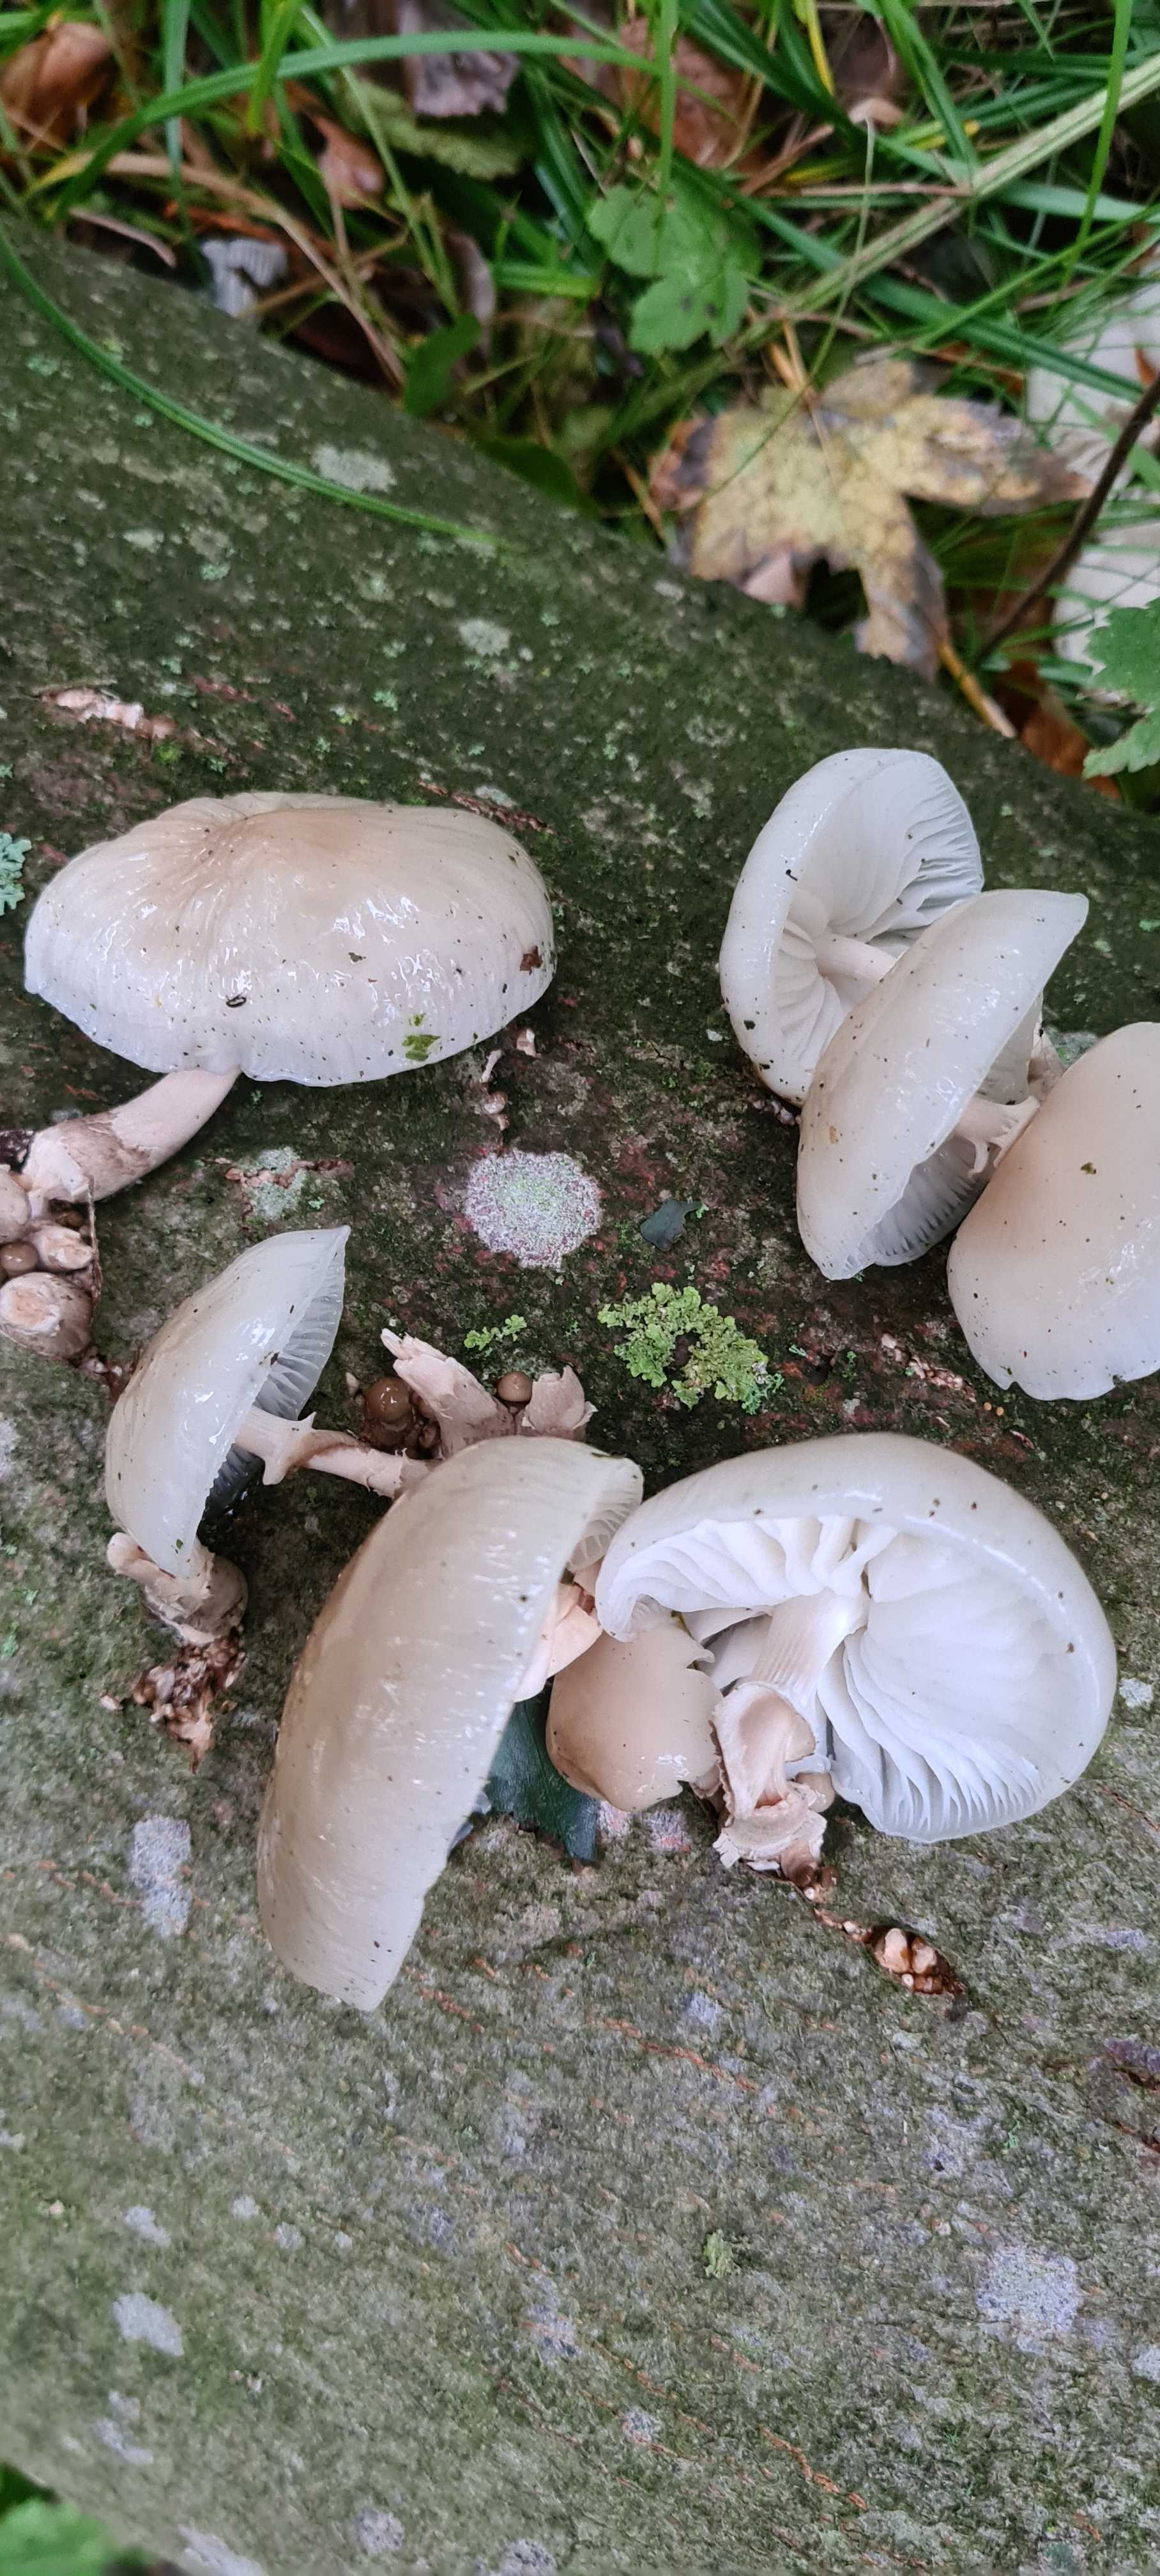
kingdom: Fungi
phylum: Basidiomycota
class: Agaricomycetes
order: Agaricales
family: Physalacriaceae
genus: Mucidula
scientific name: Mucidula mucida
